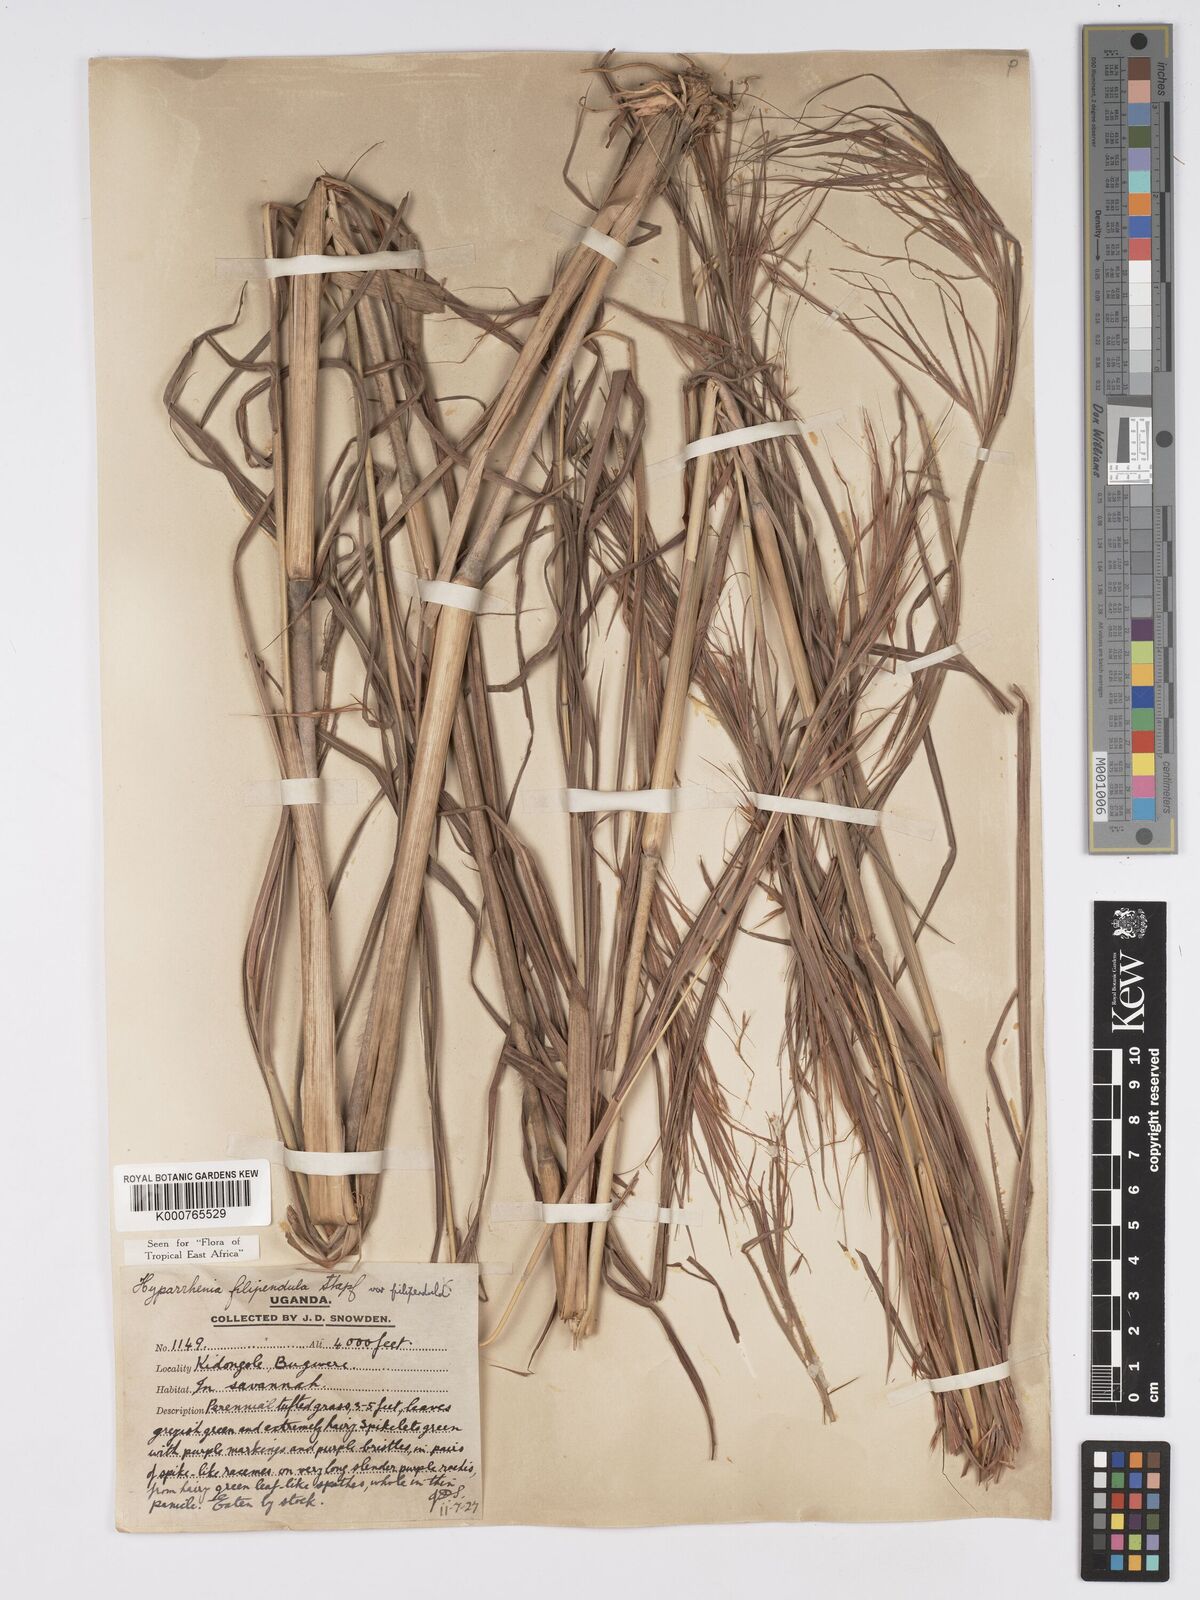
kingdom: Plantae
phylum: Tracheophyta
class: Liliopsida
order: Poales
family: Poaceae
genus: Hyparrhenia
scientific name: Hyparrhenia filipendula
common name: Tambookie grass
